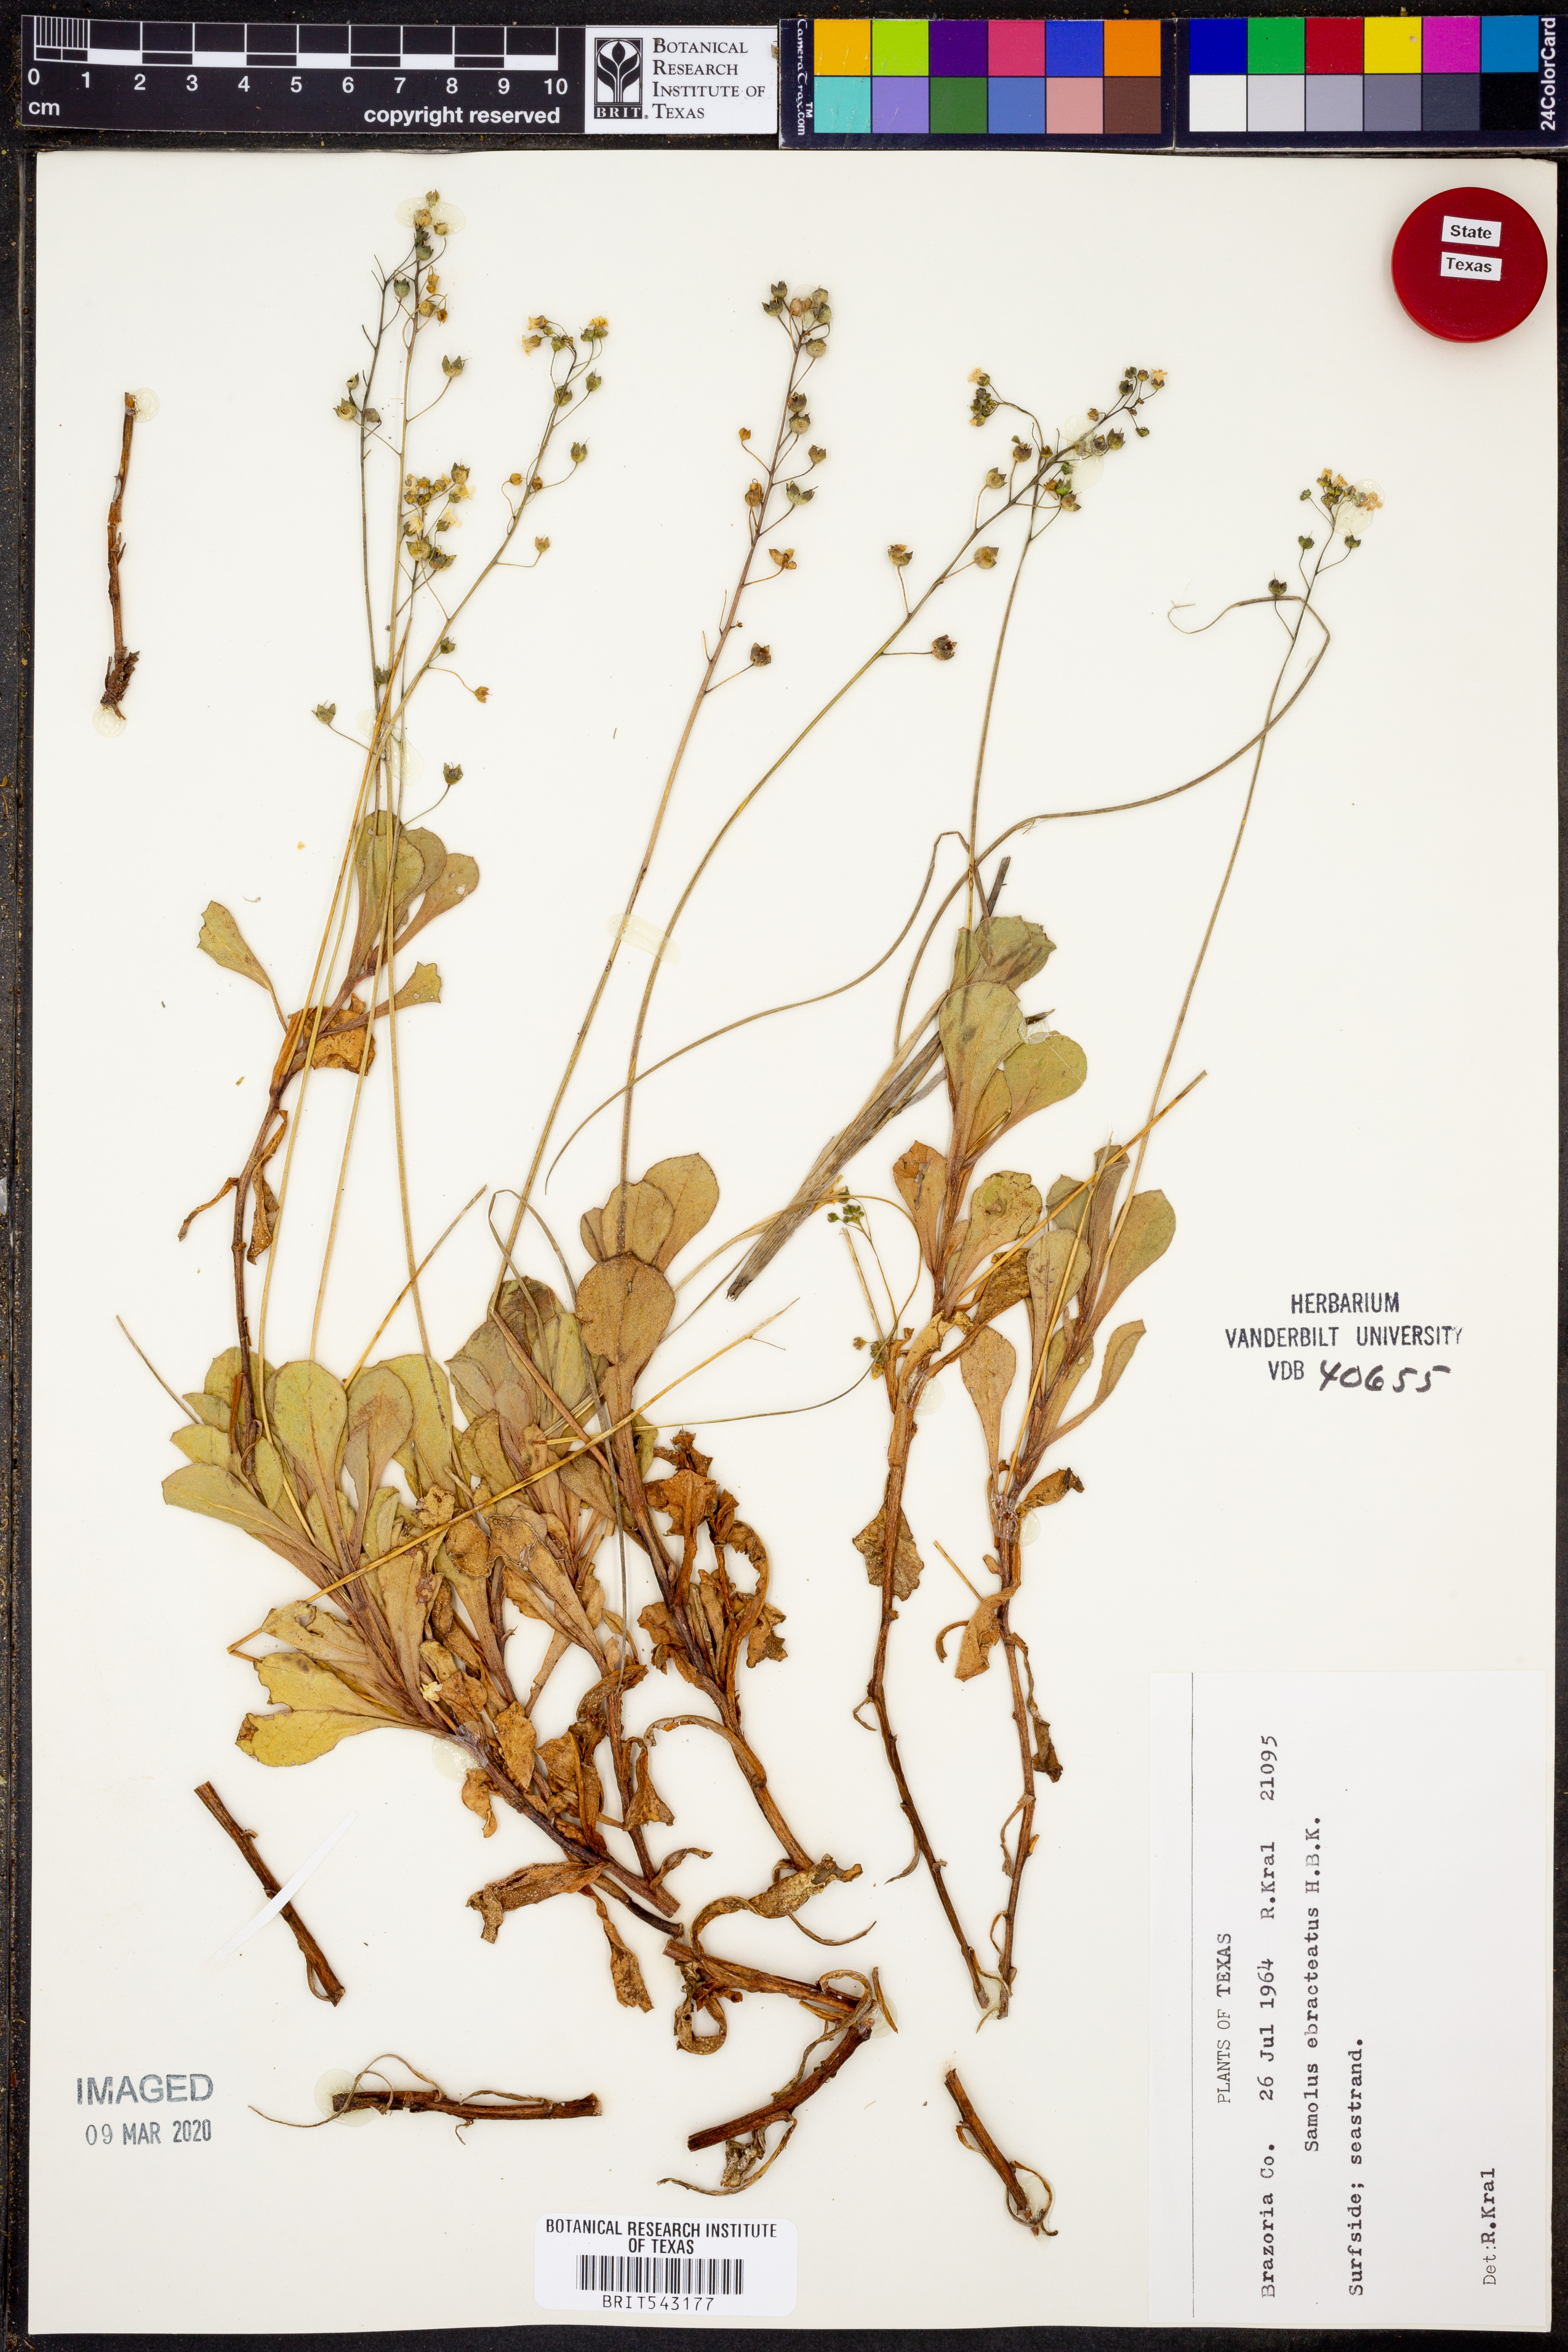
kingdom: Plantae
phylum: Tracheophyta
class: Magnoliopsida
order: Ericales
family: Primulaceae
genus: Samolus
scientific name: Samolus ebracteatus
